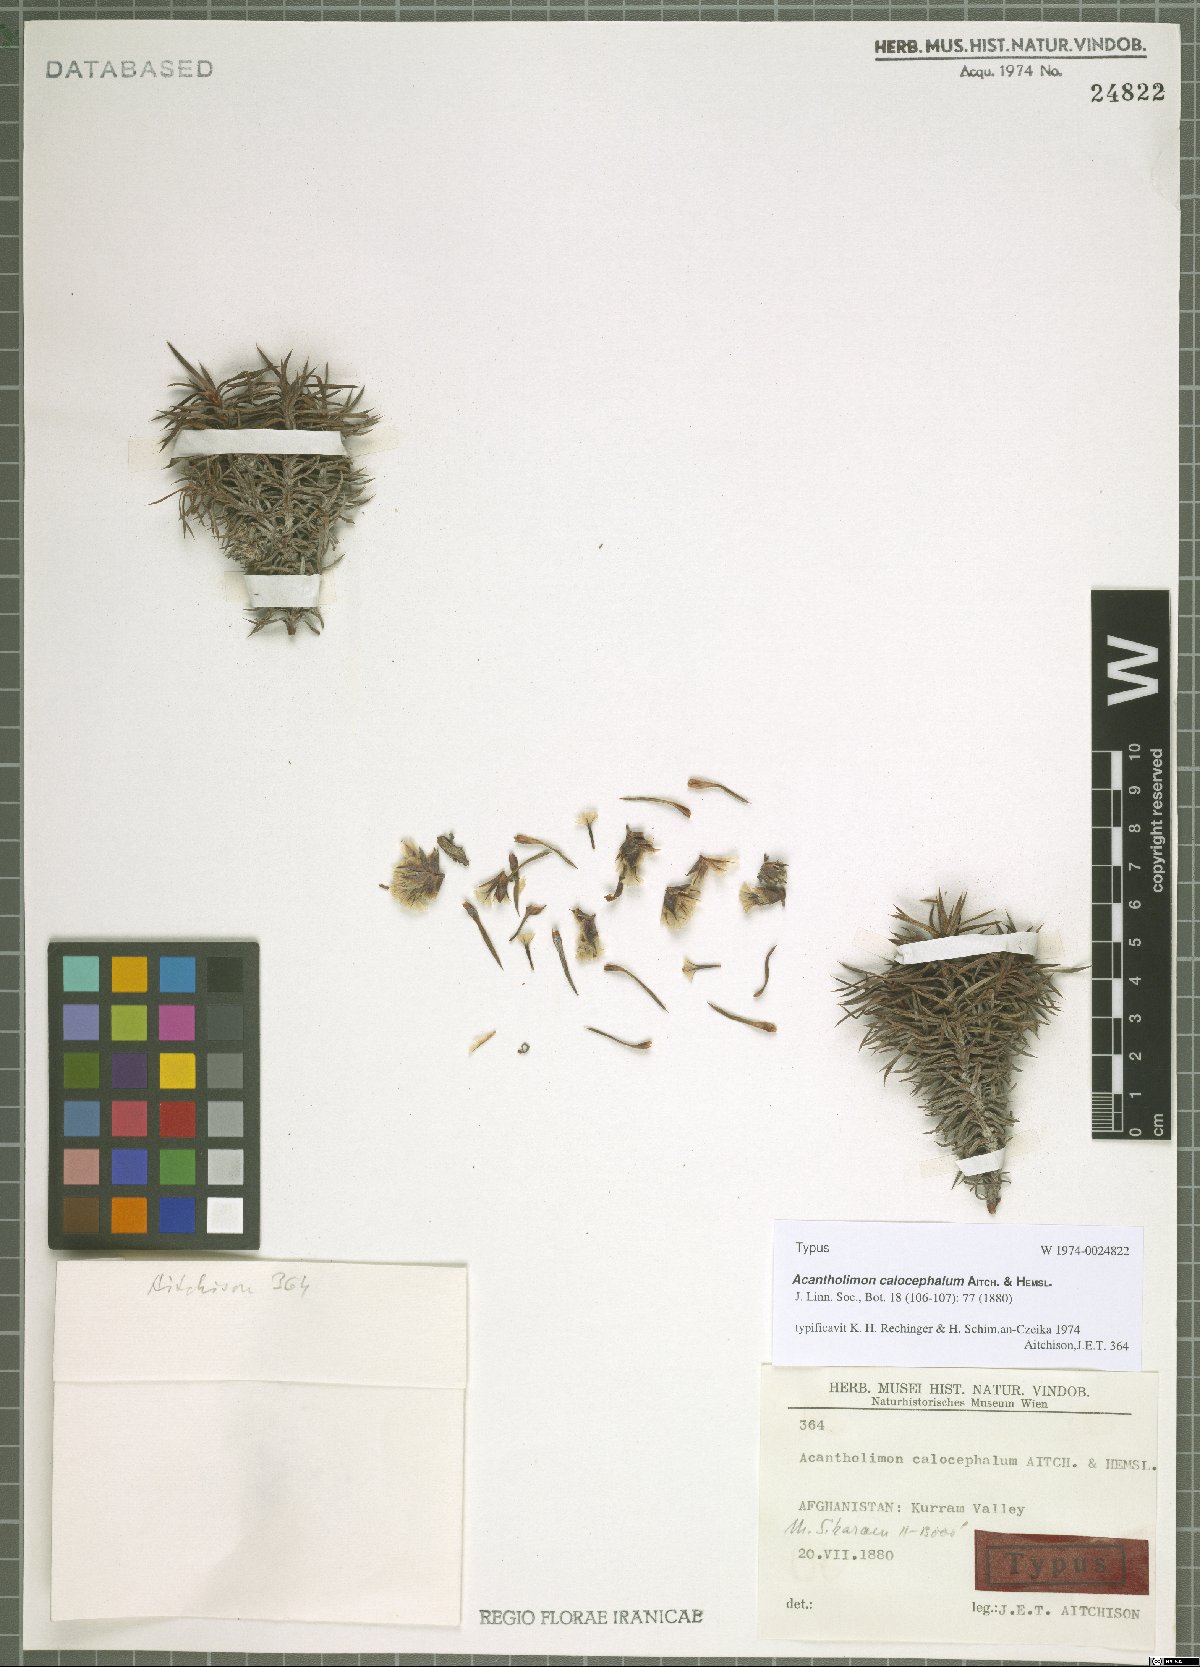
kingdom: Plantae
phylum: Tracheophyta
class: Magnoliopsida
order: Caryophyllales
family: Plumbaginaceae
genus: Acantholimon
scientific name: Acantholimon calocephalum
